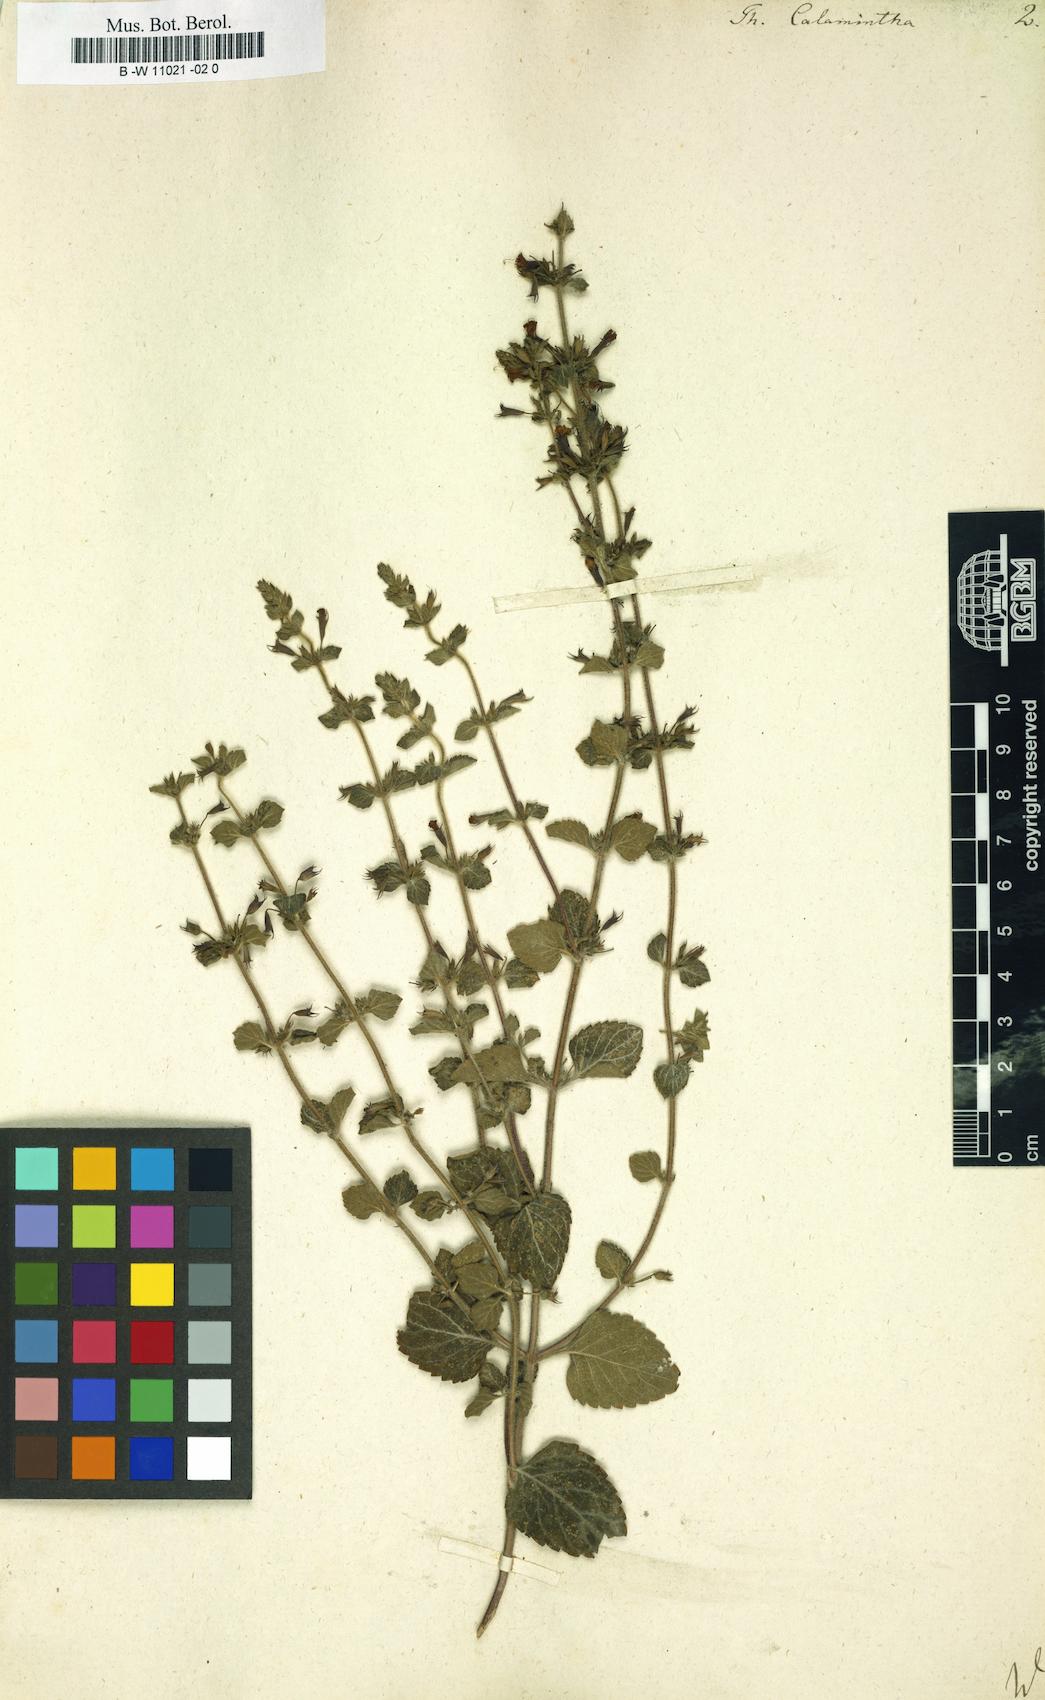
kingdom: Plantae
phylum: Tracheophyta
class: Magnoliopsida
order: Lamiales
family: Lamiaceae
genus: Clinopodium
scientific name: Clinopodium nepeta
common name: Lesser calamint
